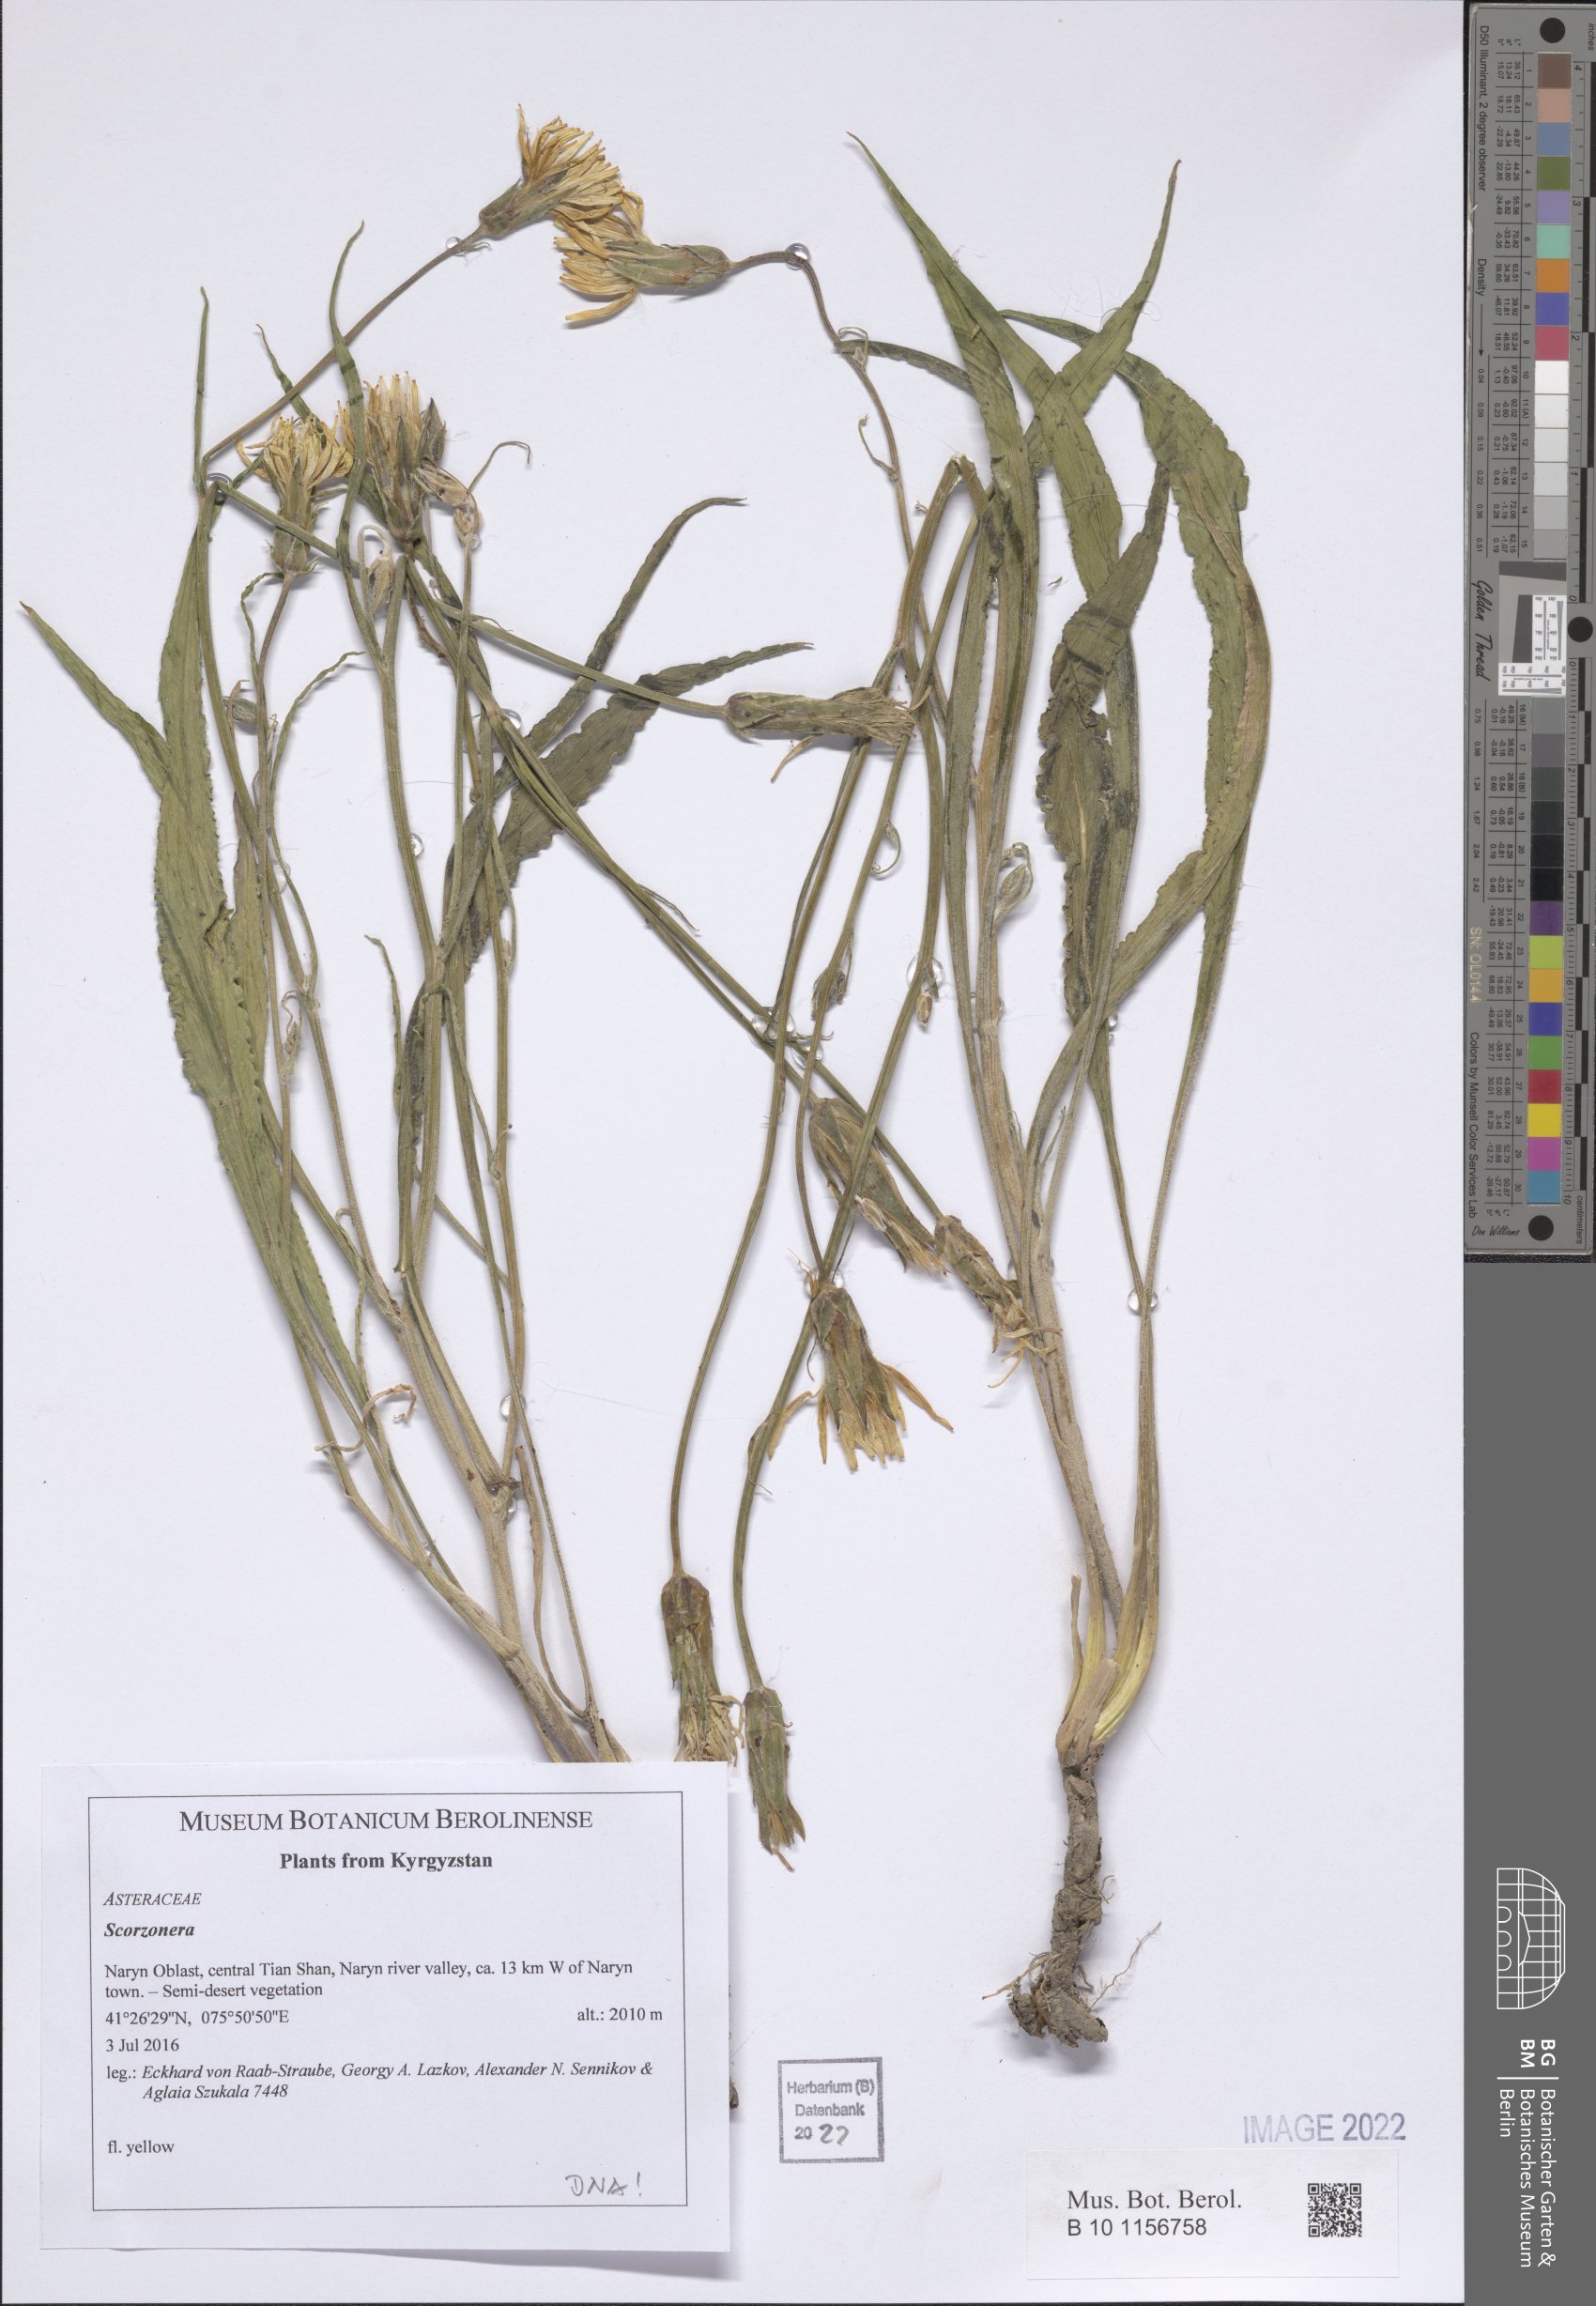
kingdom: Plantae
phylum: Tracheophyta
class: Magnoliopsida
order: Asterales
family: Asteraceae
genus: Scorzonera
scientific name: Scorzonera
